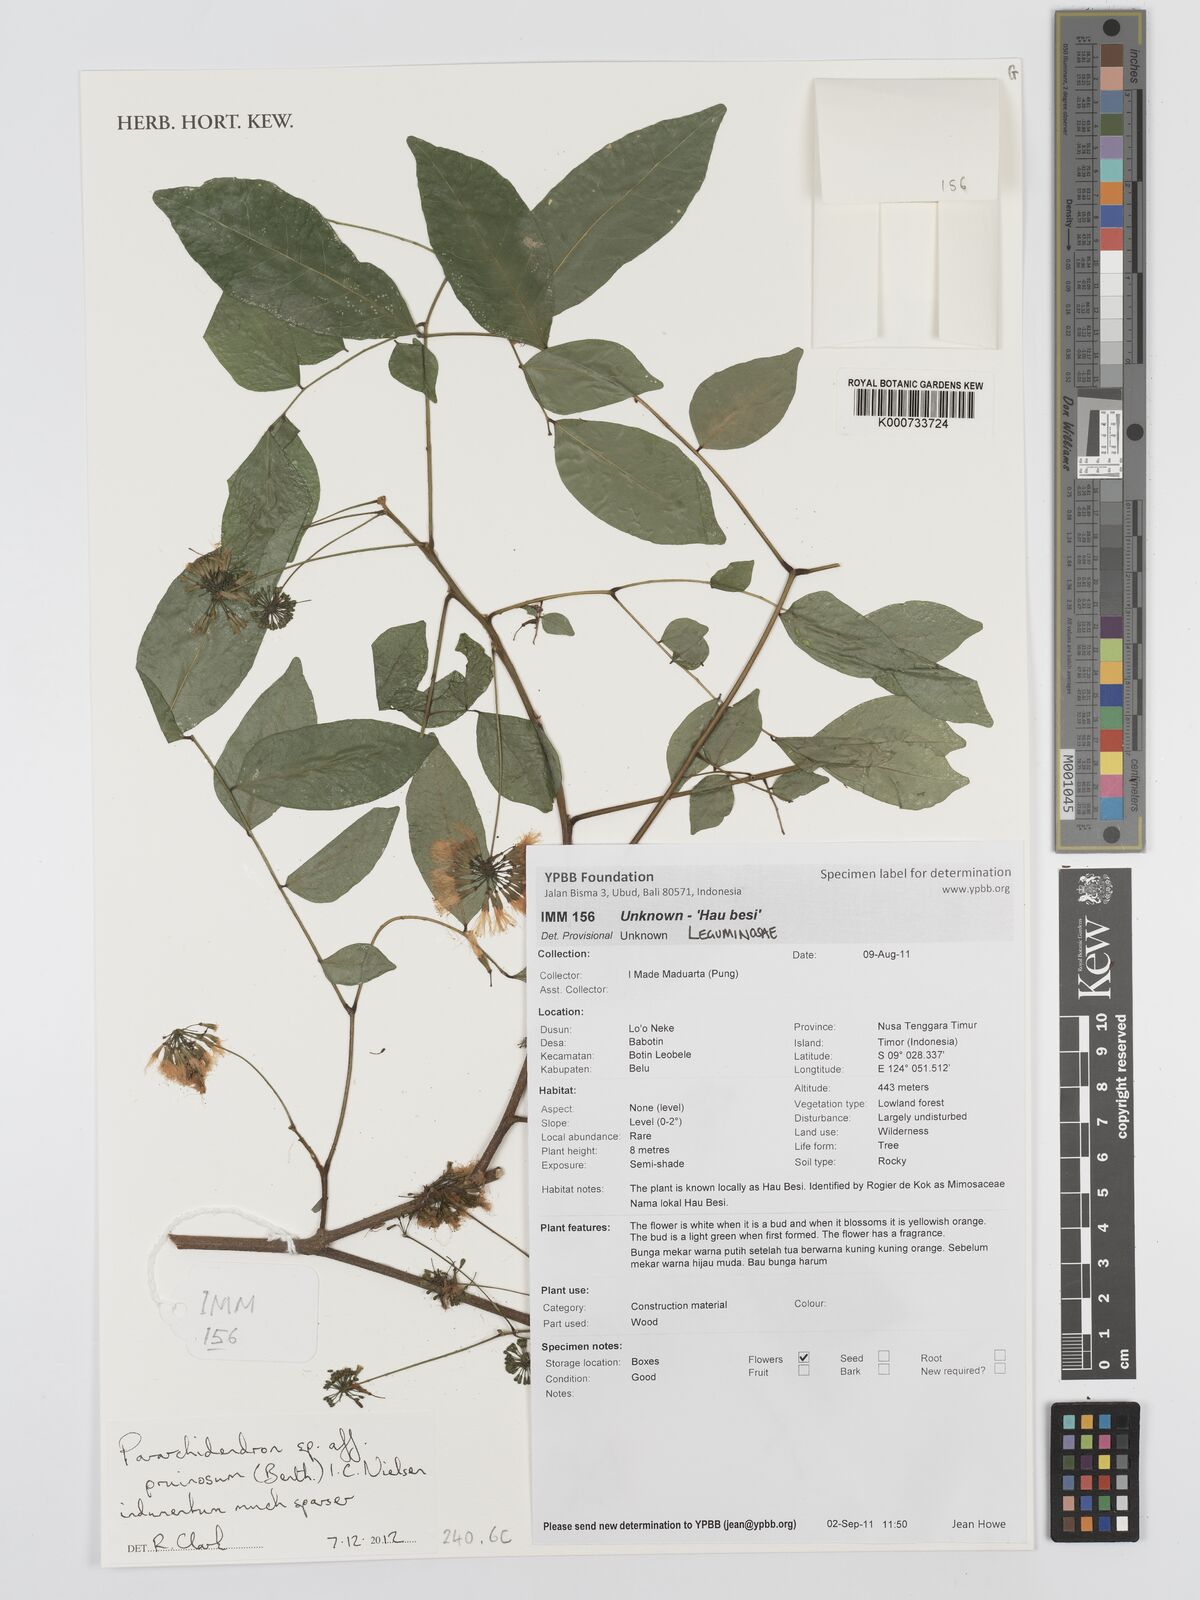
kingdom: Plantae
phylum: Tracheophyta
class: Magnoliopsida
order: Fabales
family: Fabaceae
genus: Pararchidendron
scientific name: Pararchidendron pruinosum
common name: Tulip siris
